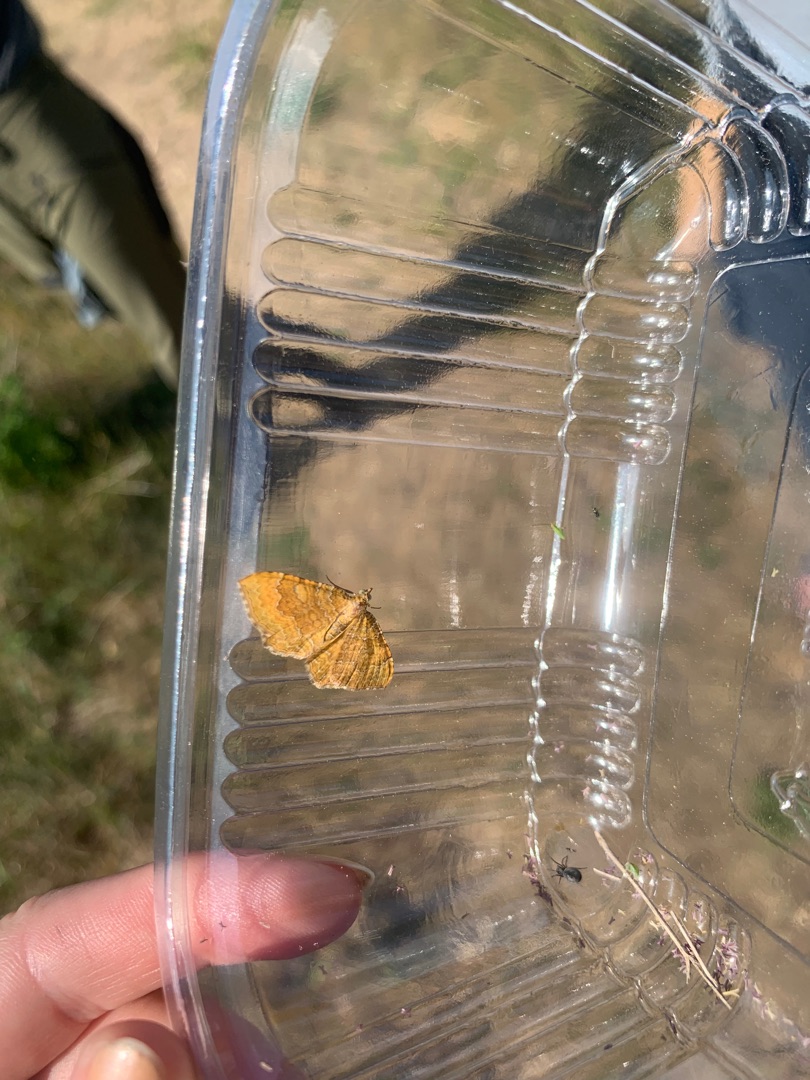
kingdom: Animalia
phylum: Arthropoda
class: Insecta
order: Lepidoptera
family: Geometridae
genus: Camptogramma
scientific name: Camptogramma bilineata
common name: Okkergul bladmåler
